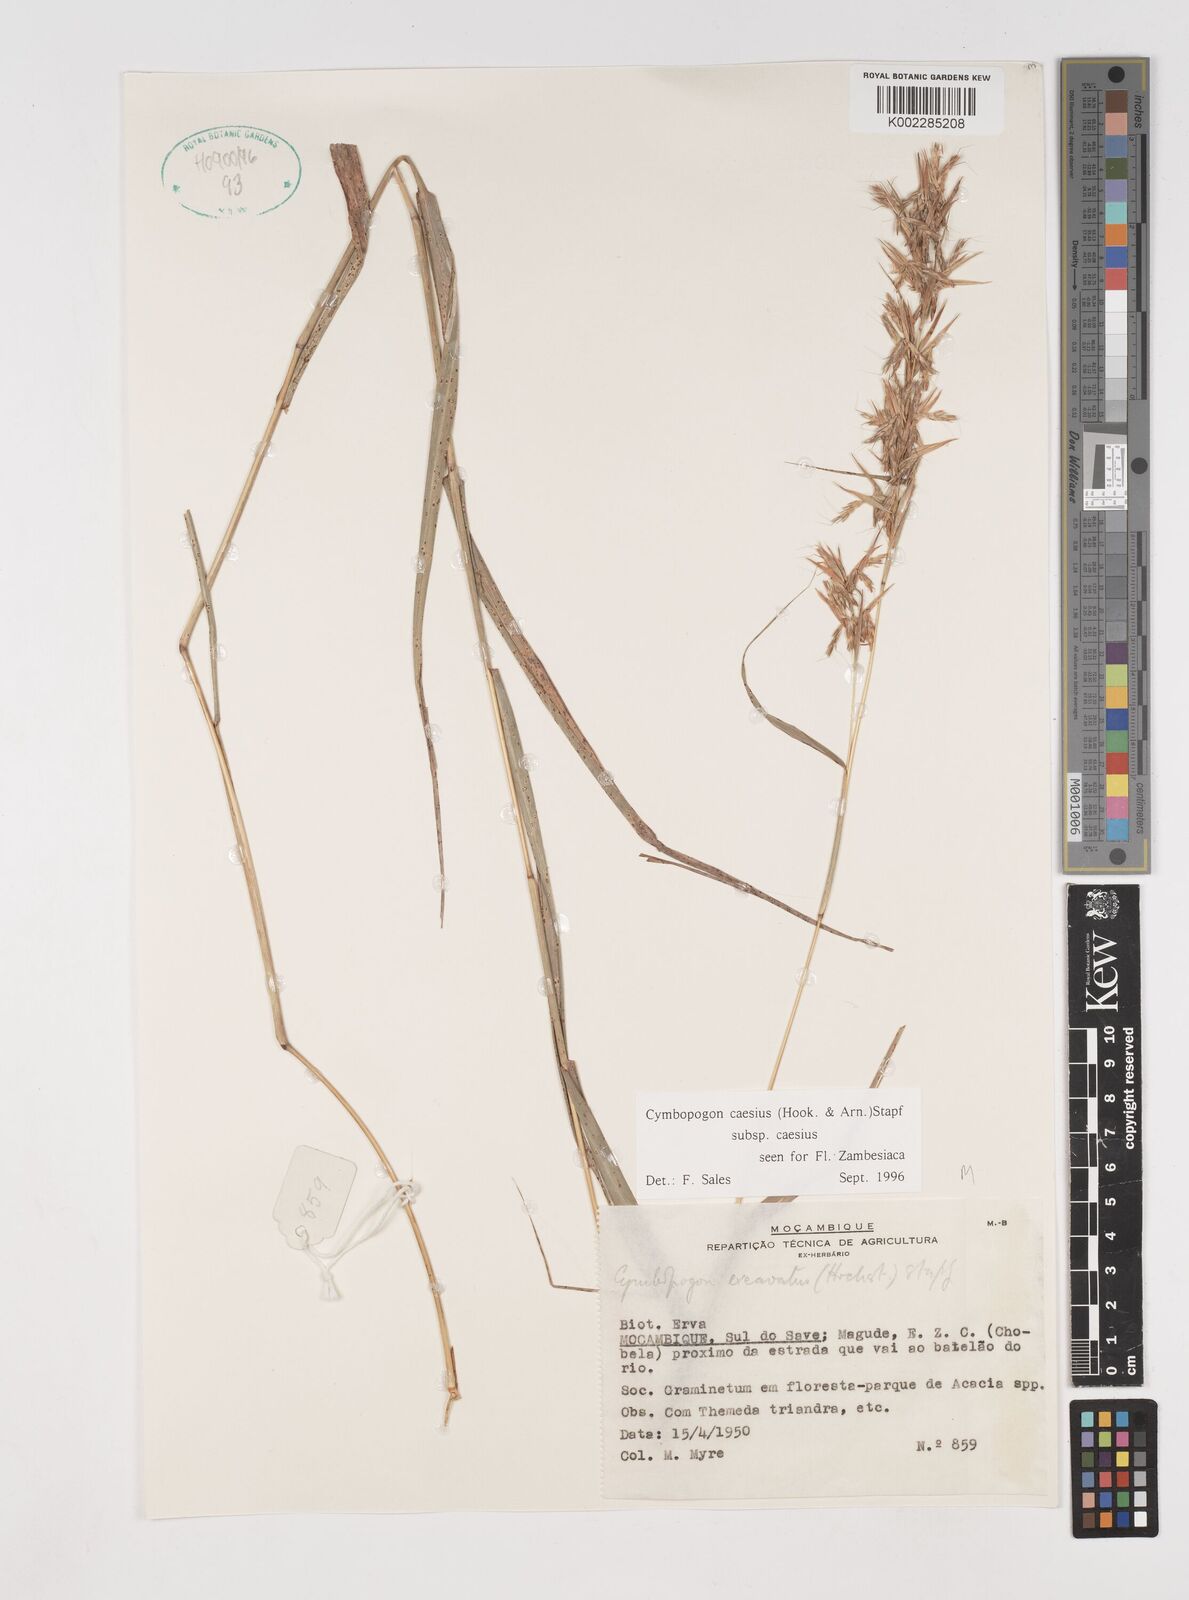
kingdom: Plantae
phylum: Tracheophyta
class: Liliopsida
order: Poales
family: Poaceae
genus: Cymbopogon
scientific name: Cymbopogon caesius
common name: Kachi grass
